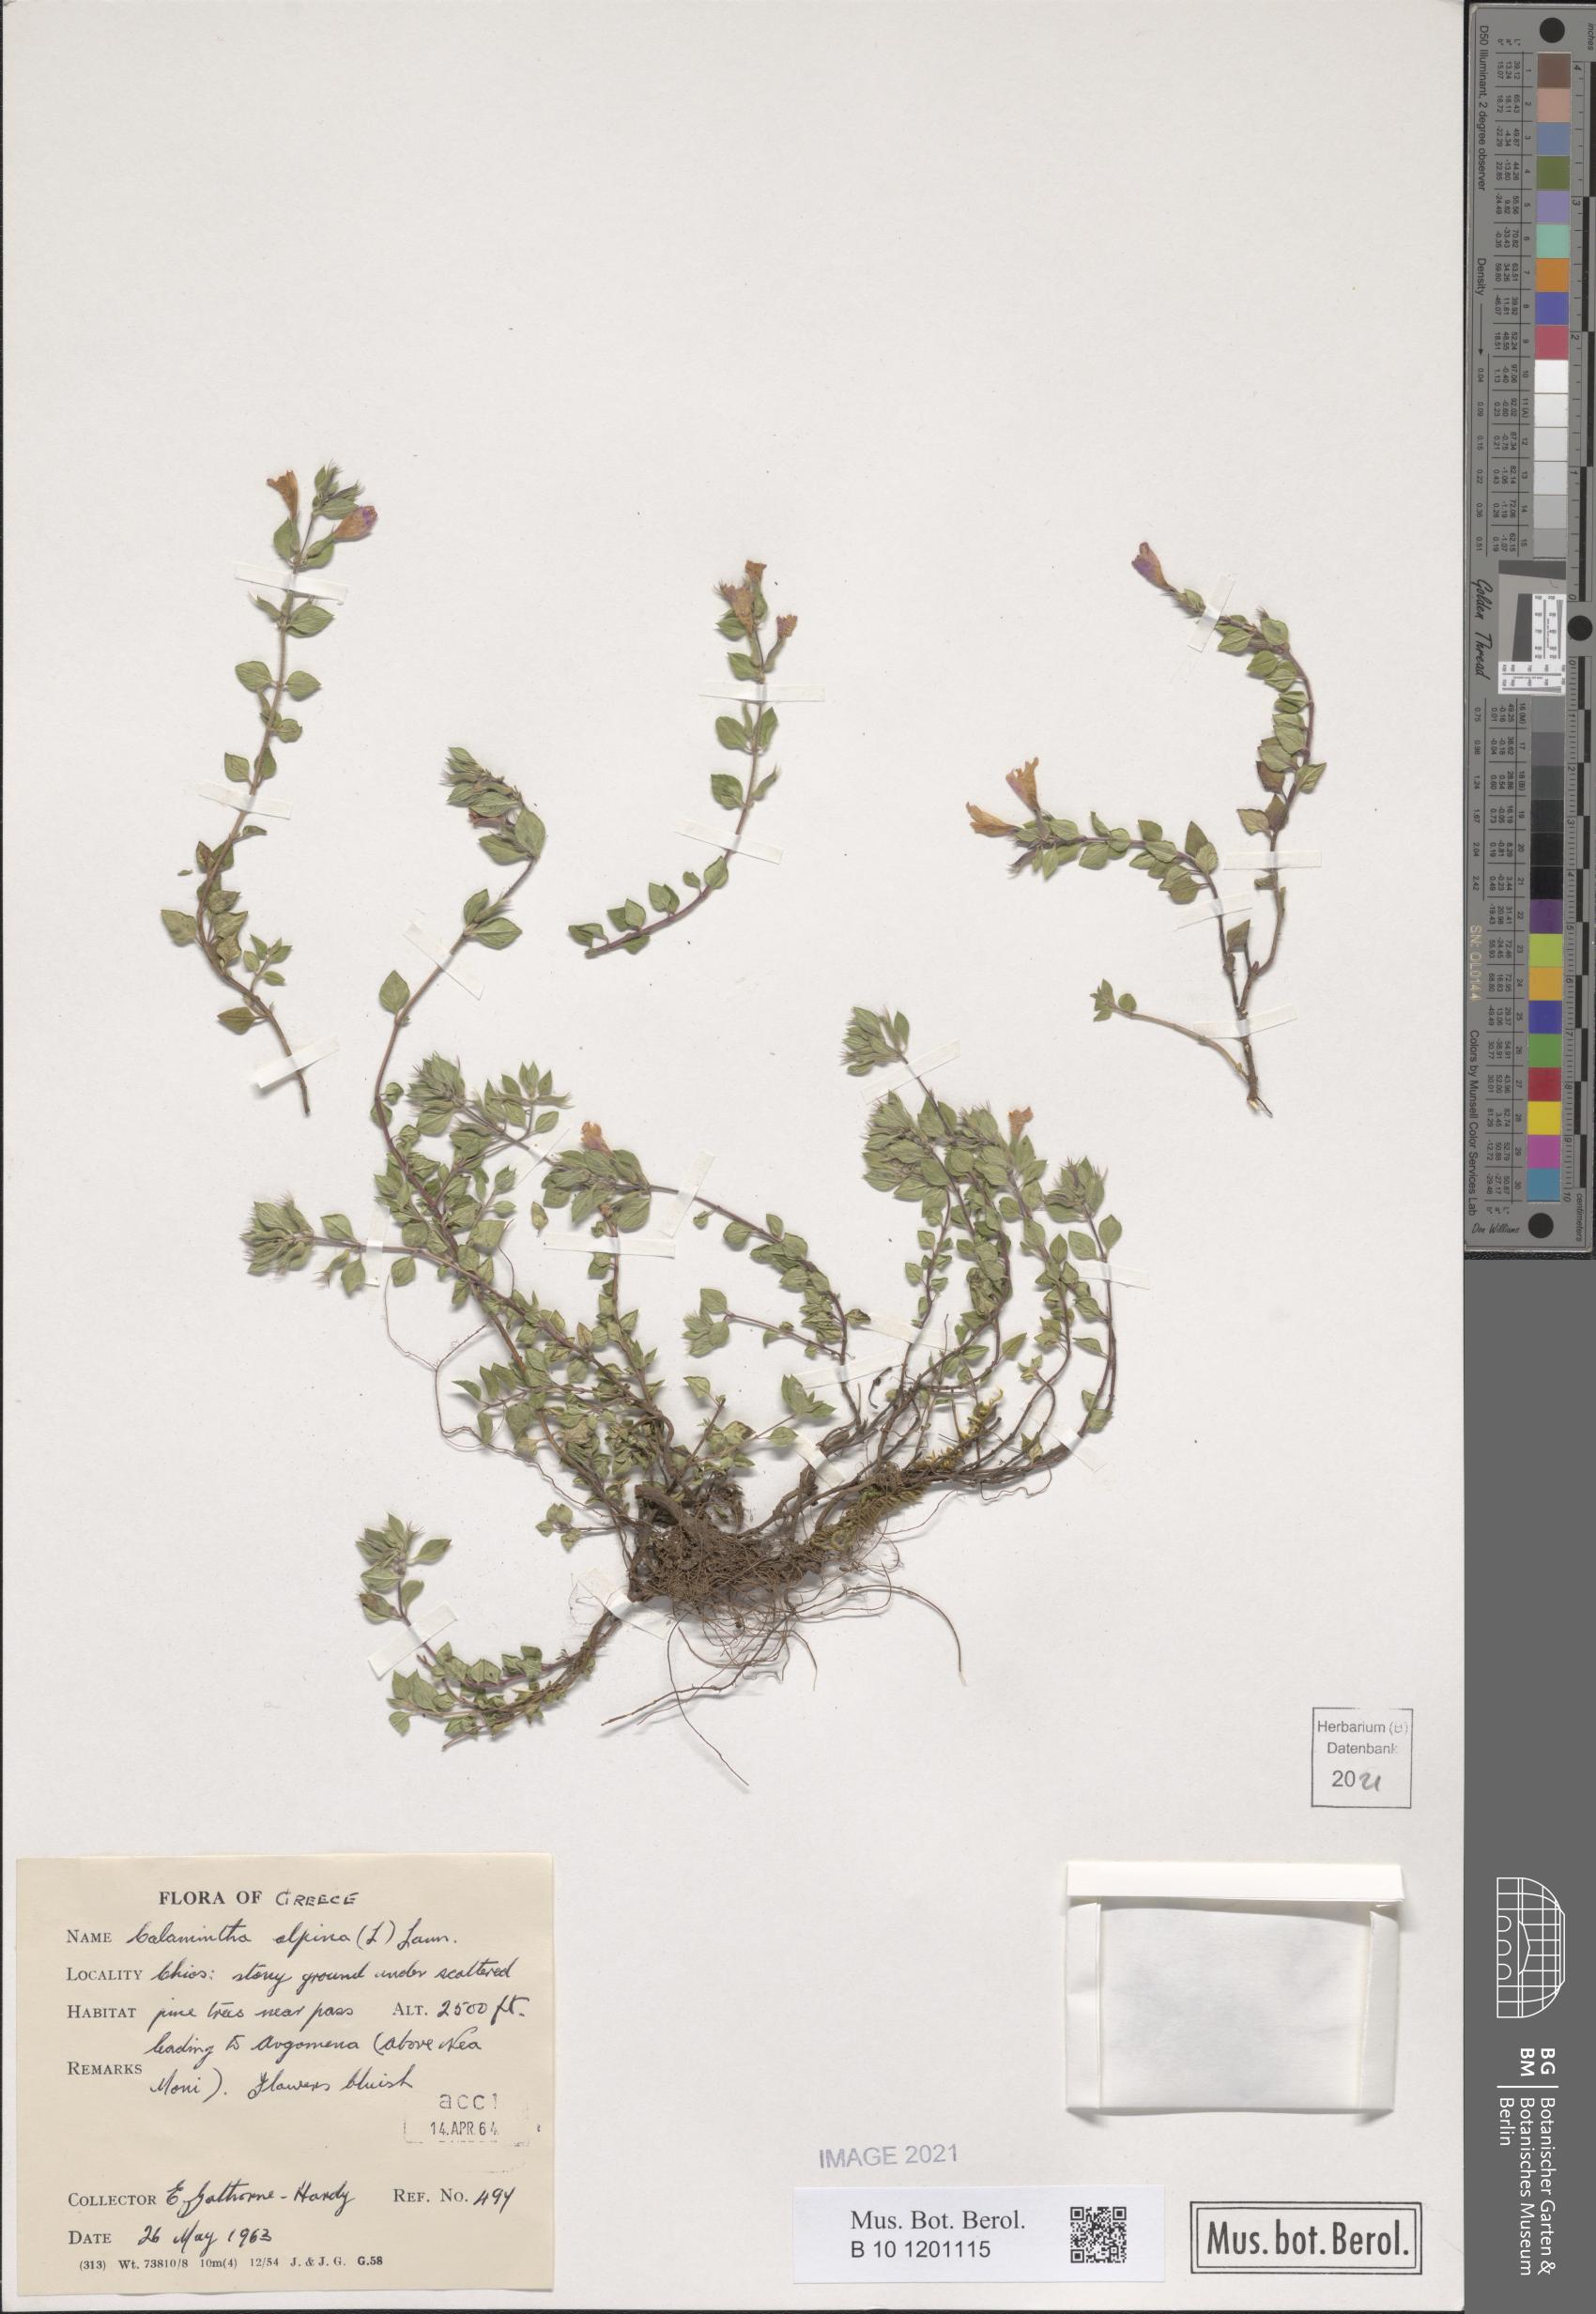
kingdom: Plantae
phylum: Tracheophyta
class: Magnoliopsida
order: Lamiales
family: Lamiaceae
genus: Clinopodium
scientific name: Clinopodium alpinum
